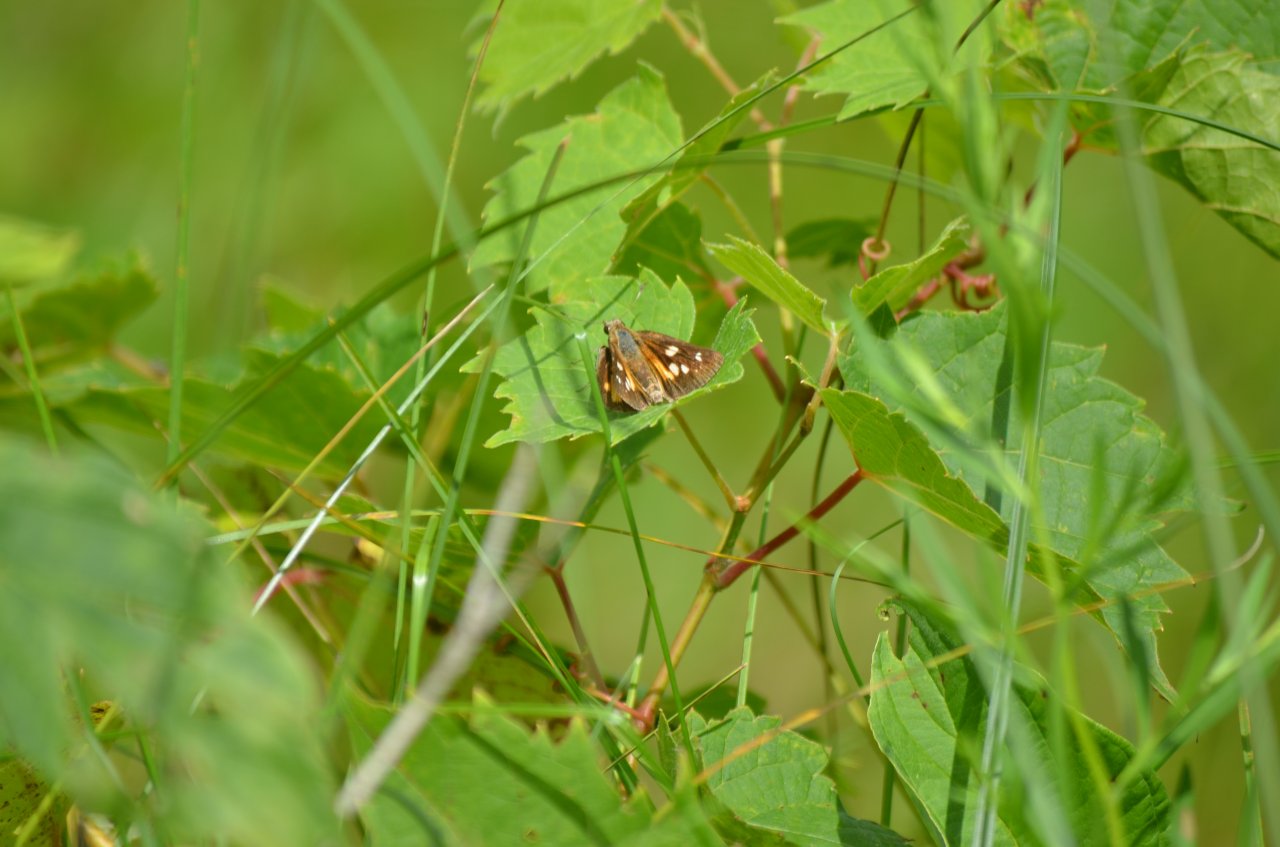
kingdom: Animalia
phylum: Arthropoda
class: Insecta
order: Lepidoptera
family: Hesperiidae
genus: Poanes
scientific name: Poanes viator
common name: Broad-winged Skipper
